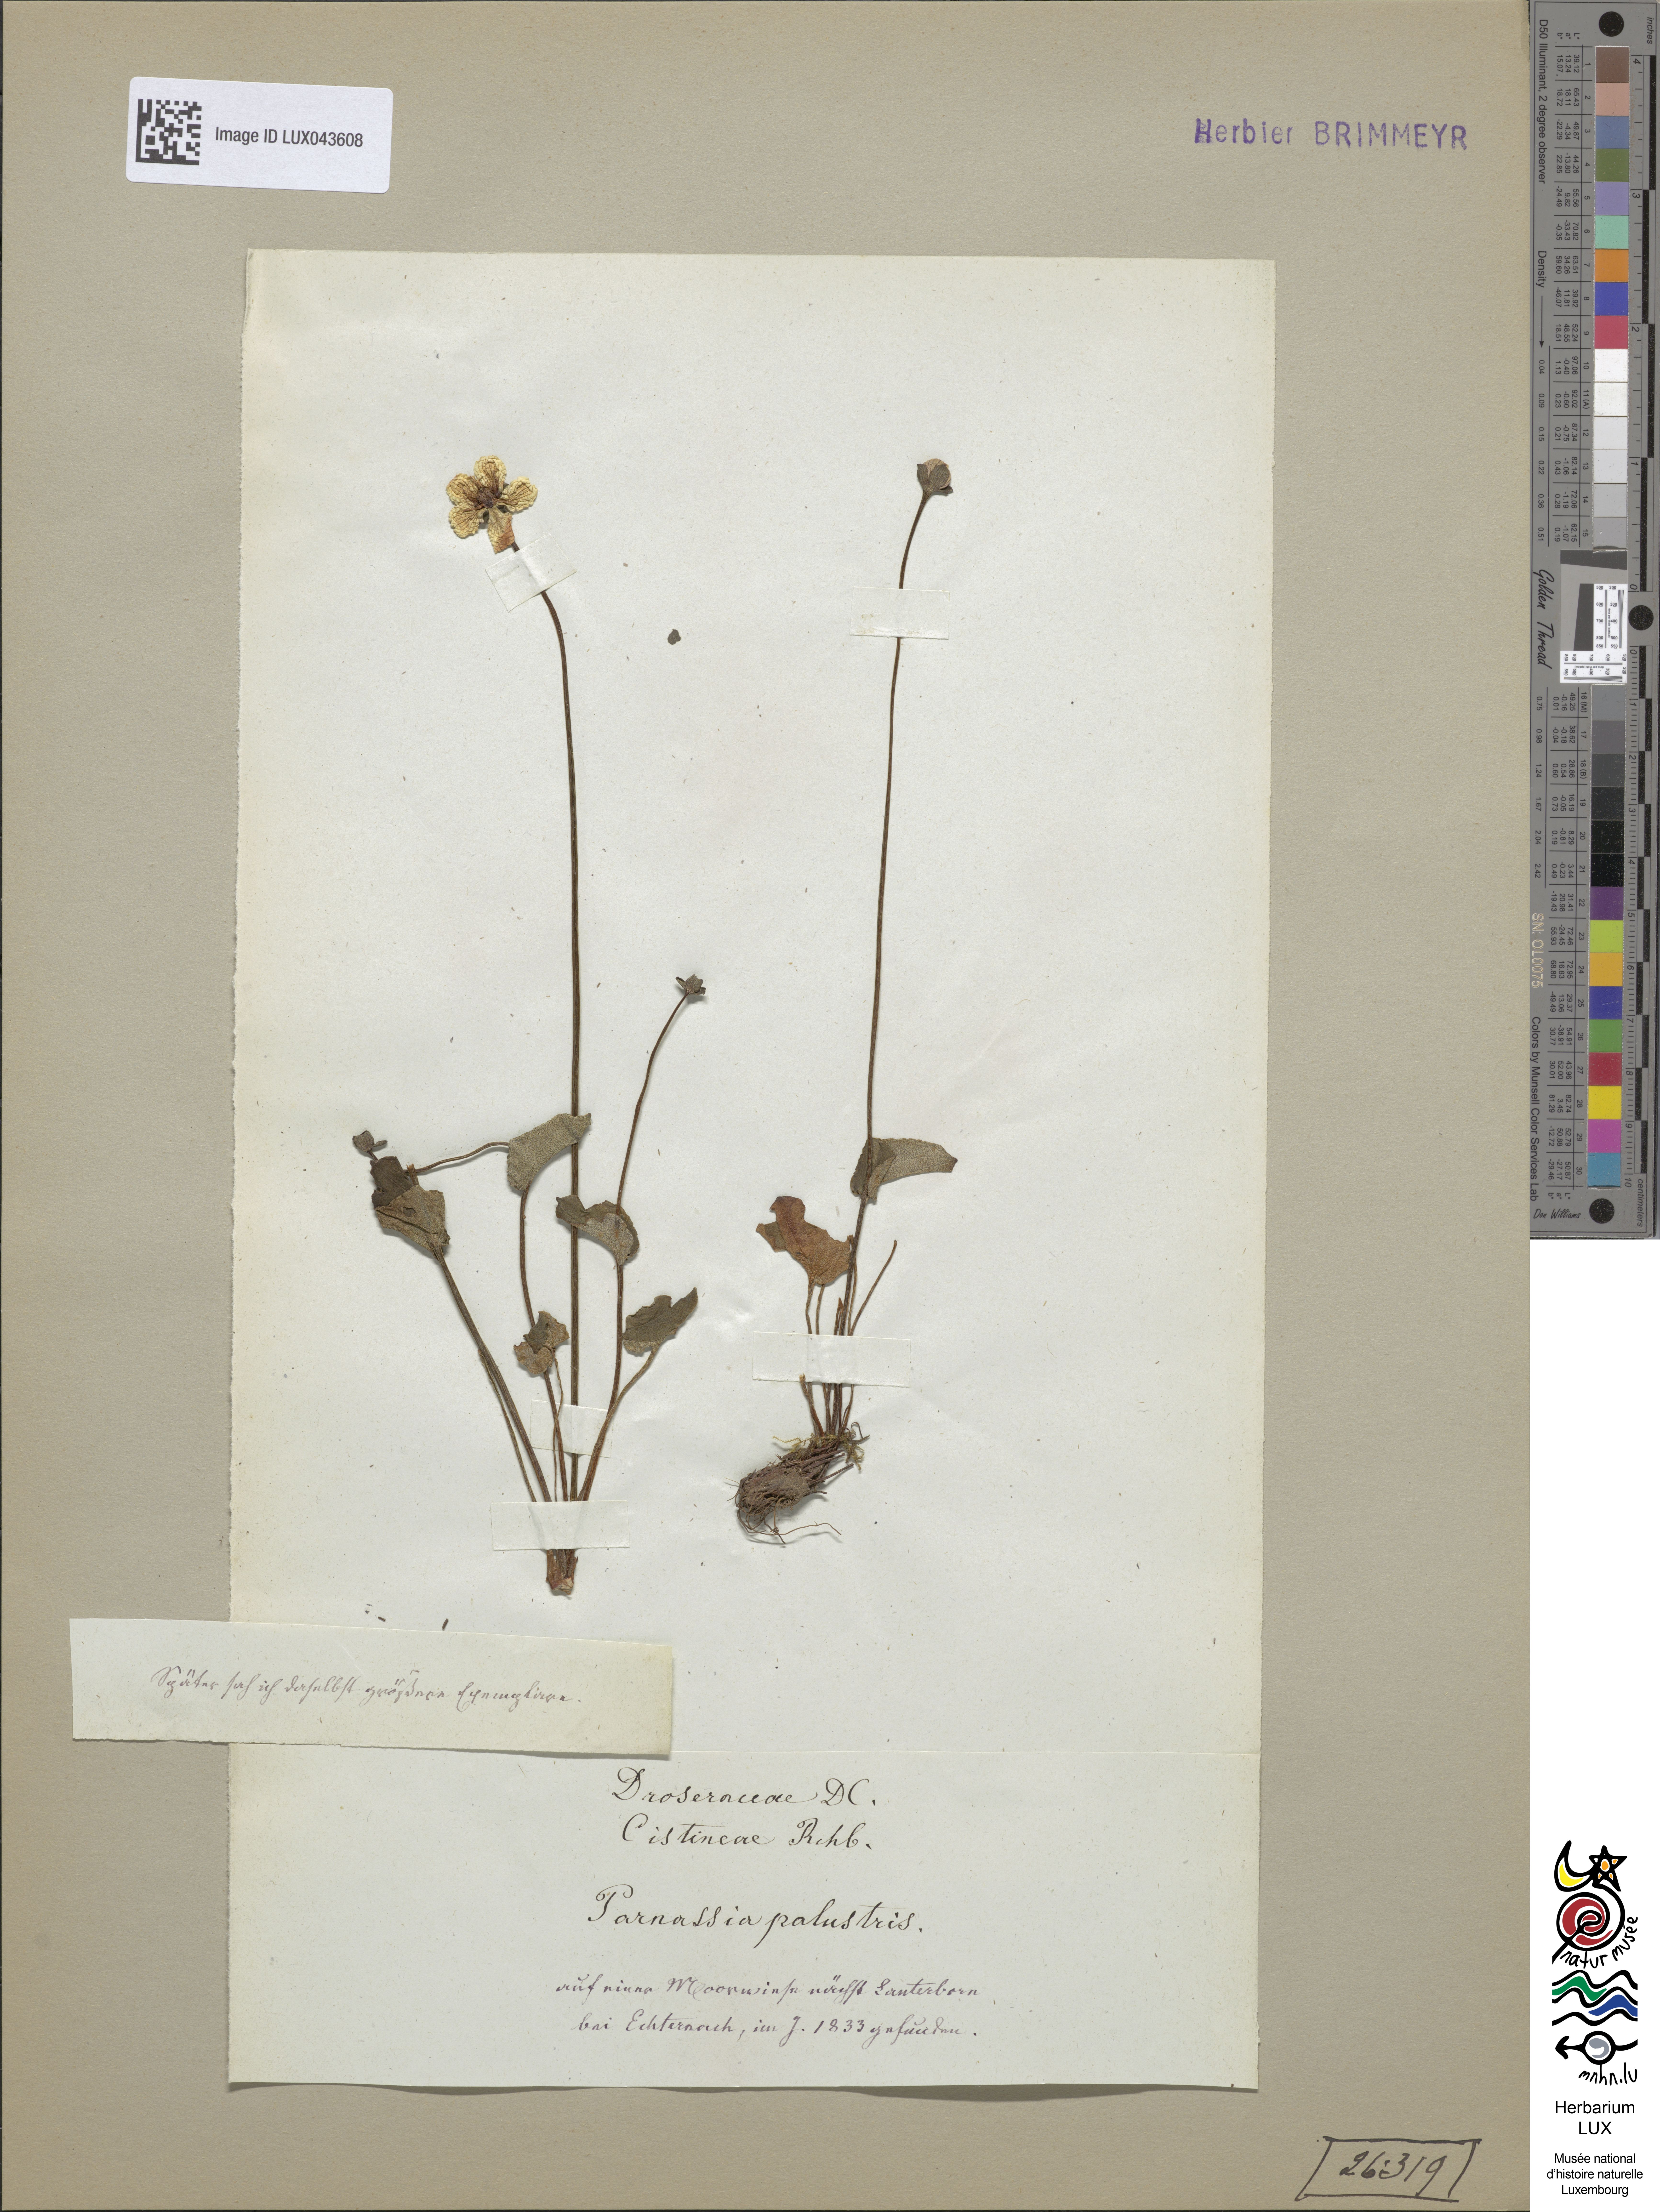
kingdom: Plantae
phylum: Tracheophyta
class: Magnoliopsida
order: Celastrales
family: Parnassiaceae
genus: Parnassia
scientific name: Parnassia palustris
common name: Grass-of-parnassus
